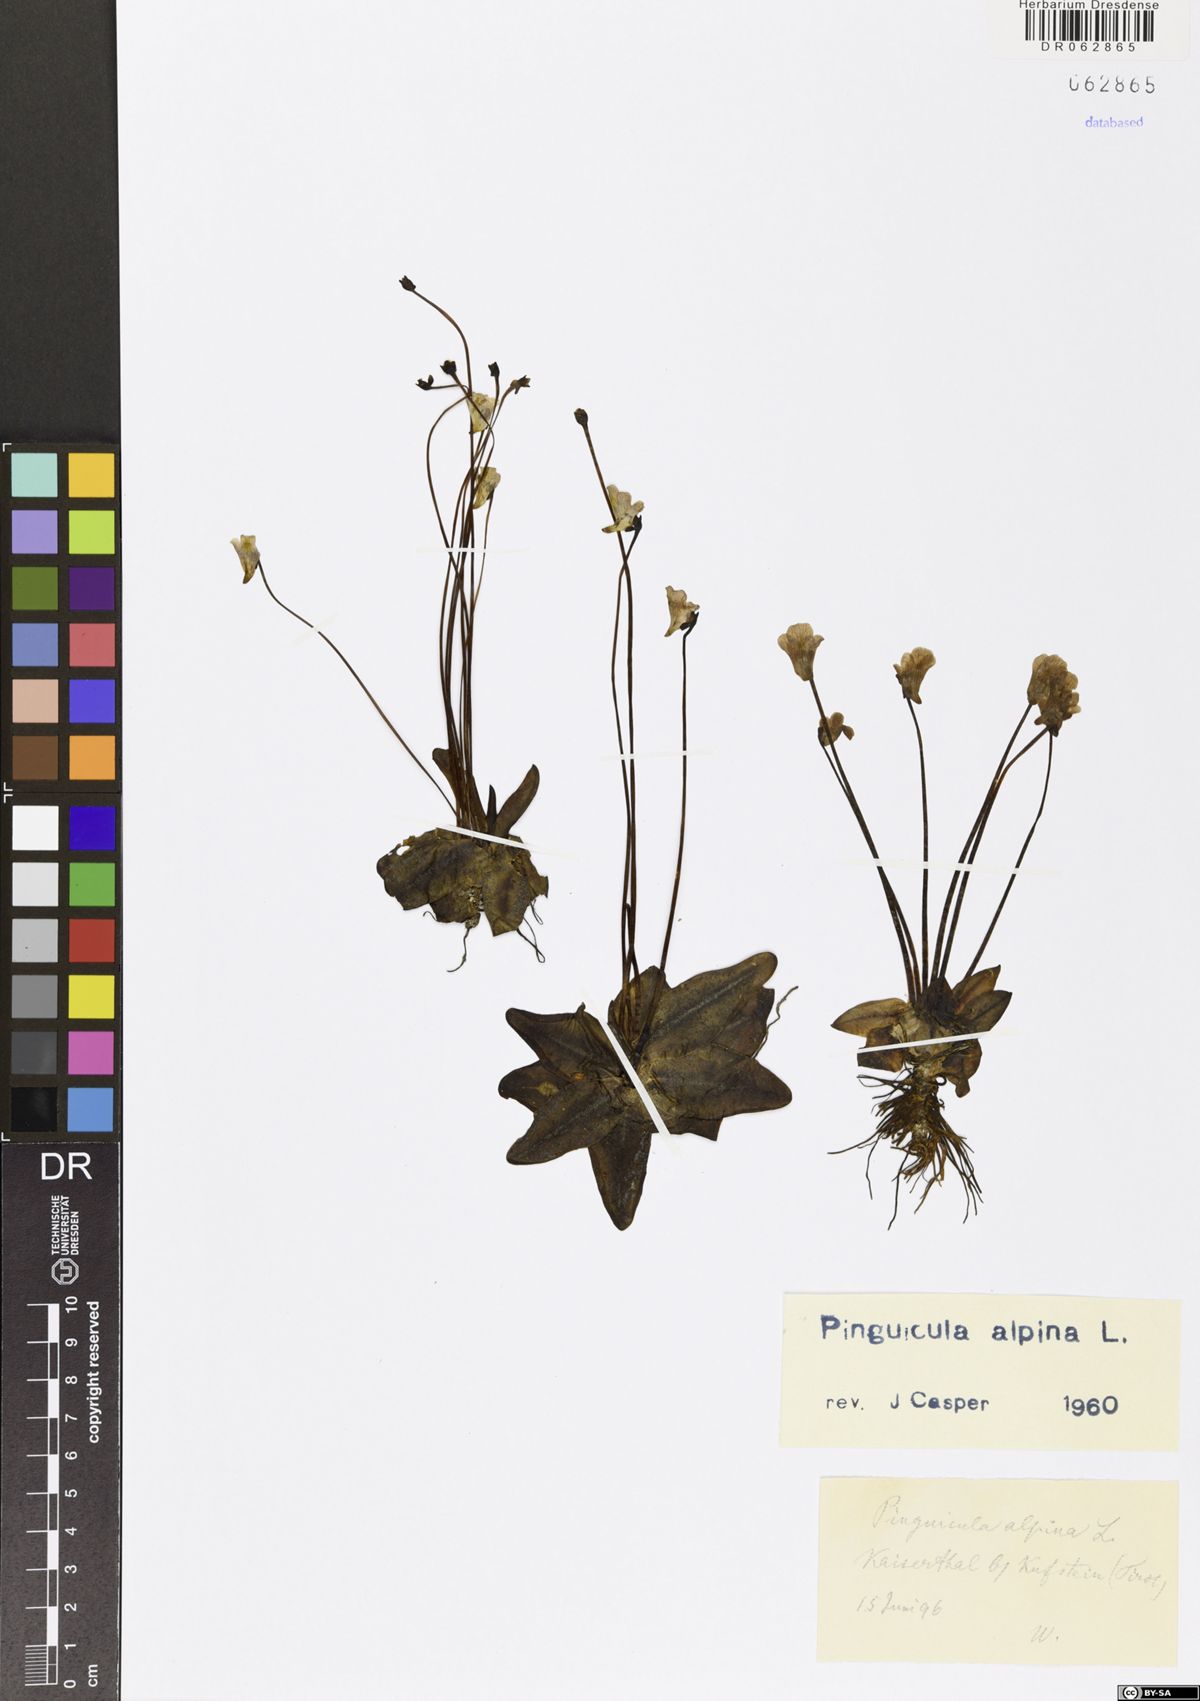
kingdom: Plantae
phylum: Tracheophyta
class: Magnoliopsida
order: Lamiales
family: Lentibulariaceae
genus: Pinguicula
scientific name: Pinguicula alpina
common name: Alpine butterwort
